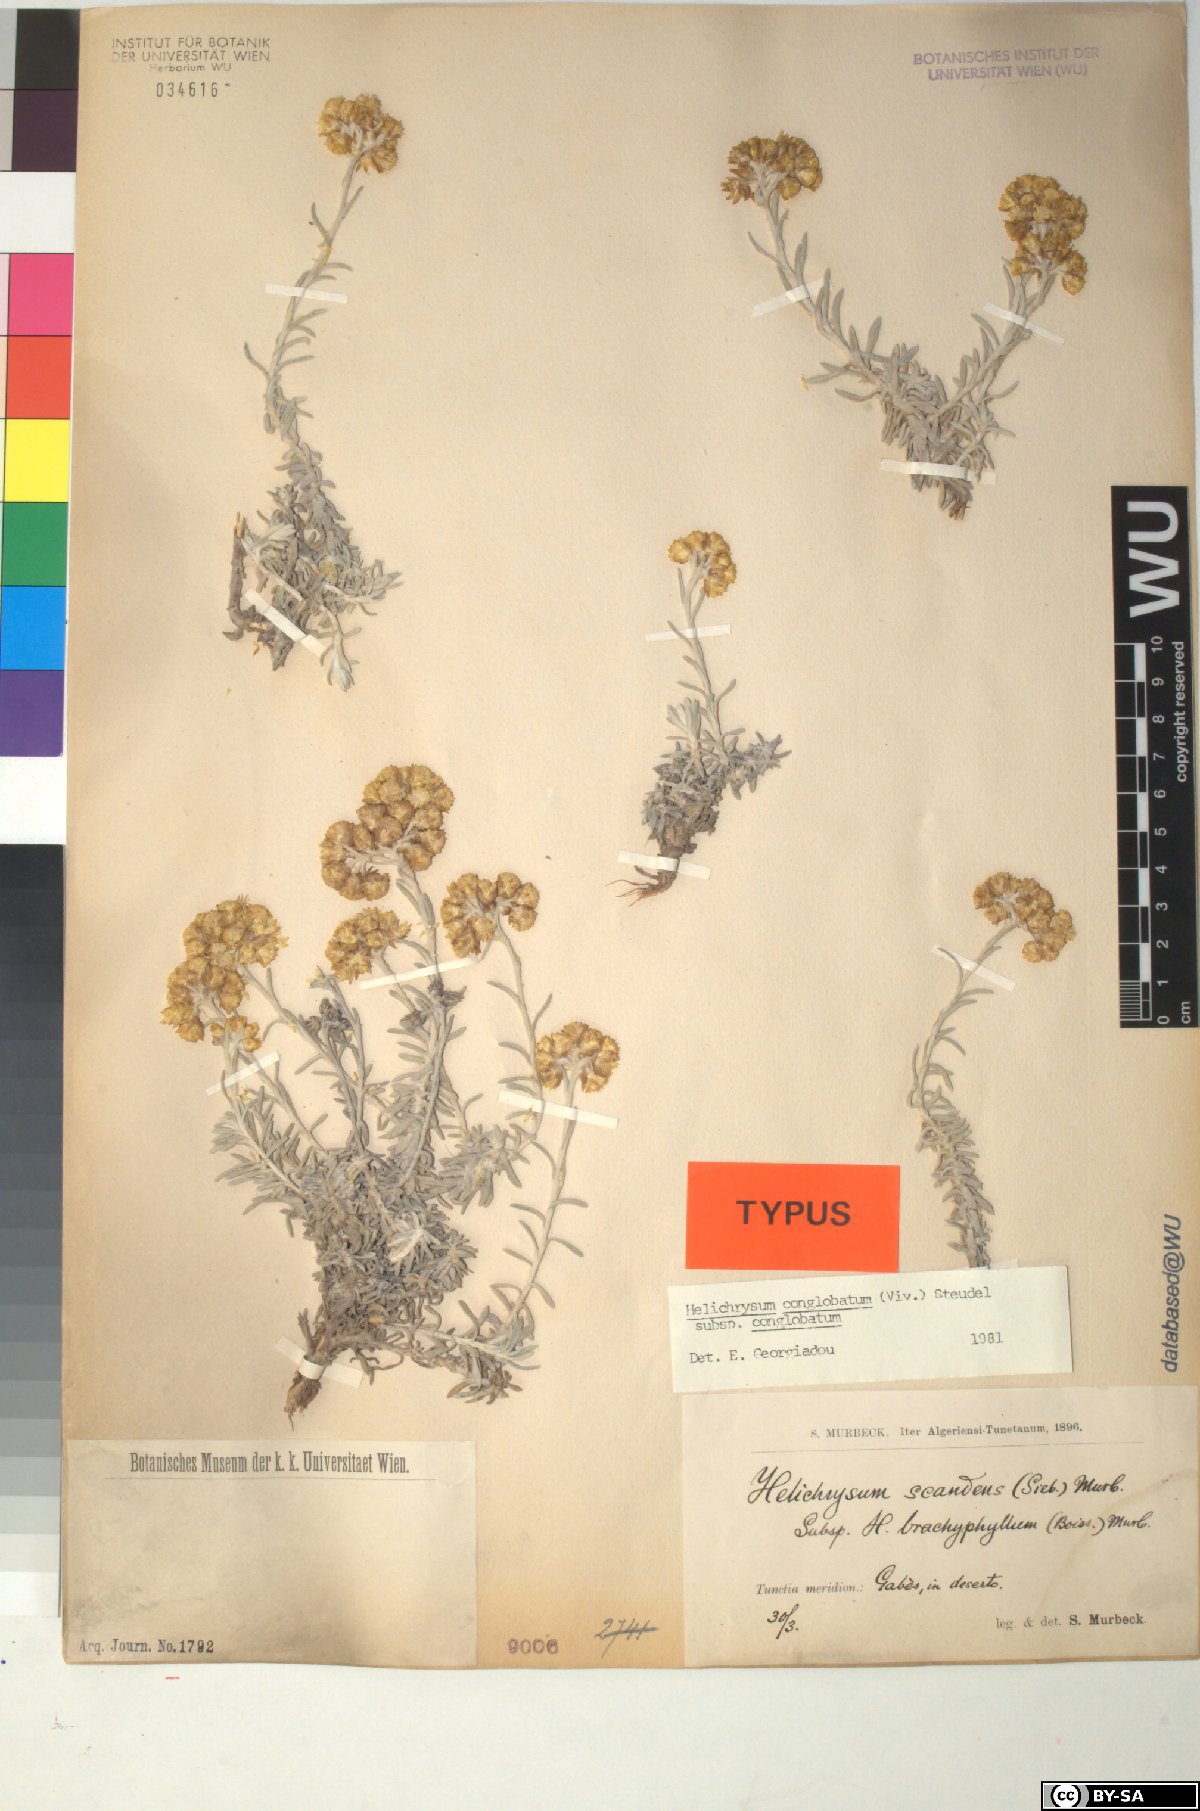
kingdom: Plantae
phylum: Tracheophyta
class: Magnoliopsida
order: Asterales
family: Asteraceae
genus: Helichrysum
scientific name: Helichrysum stoechas
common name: Goldilocks
